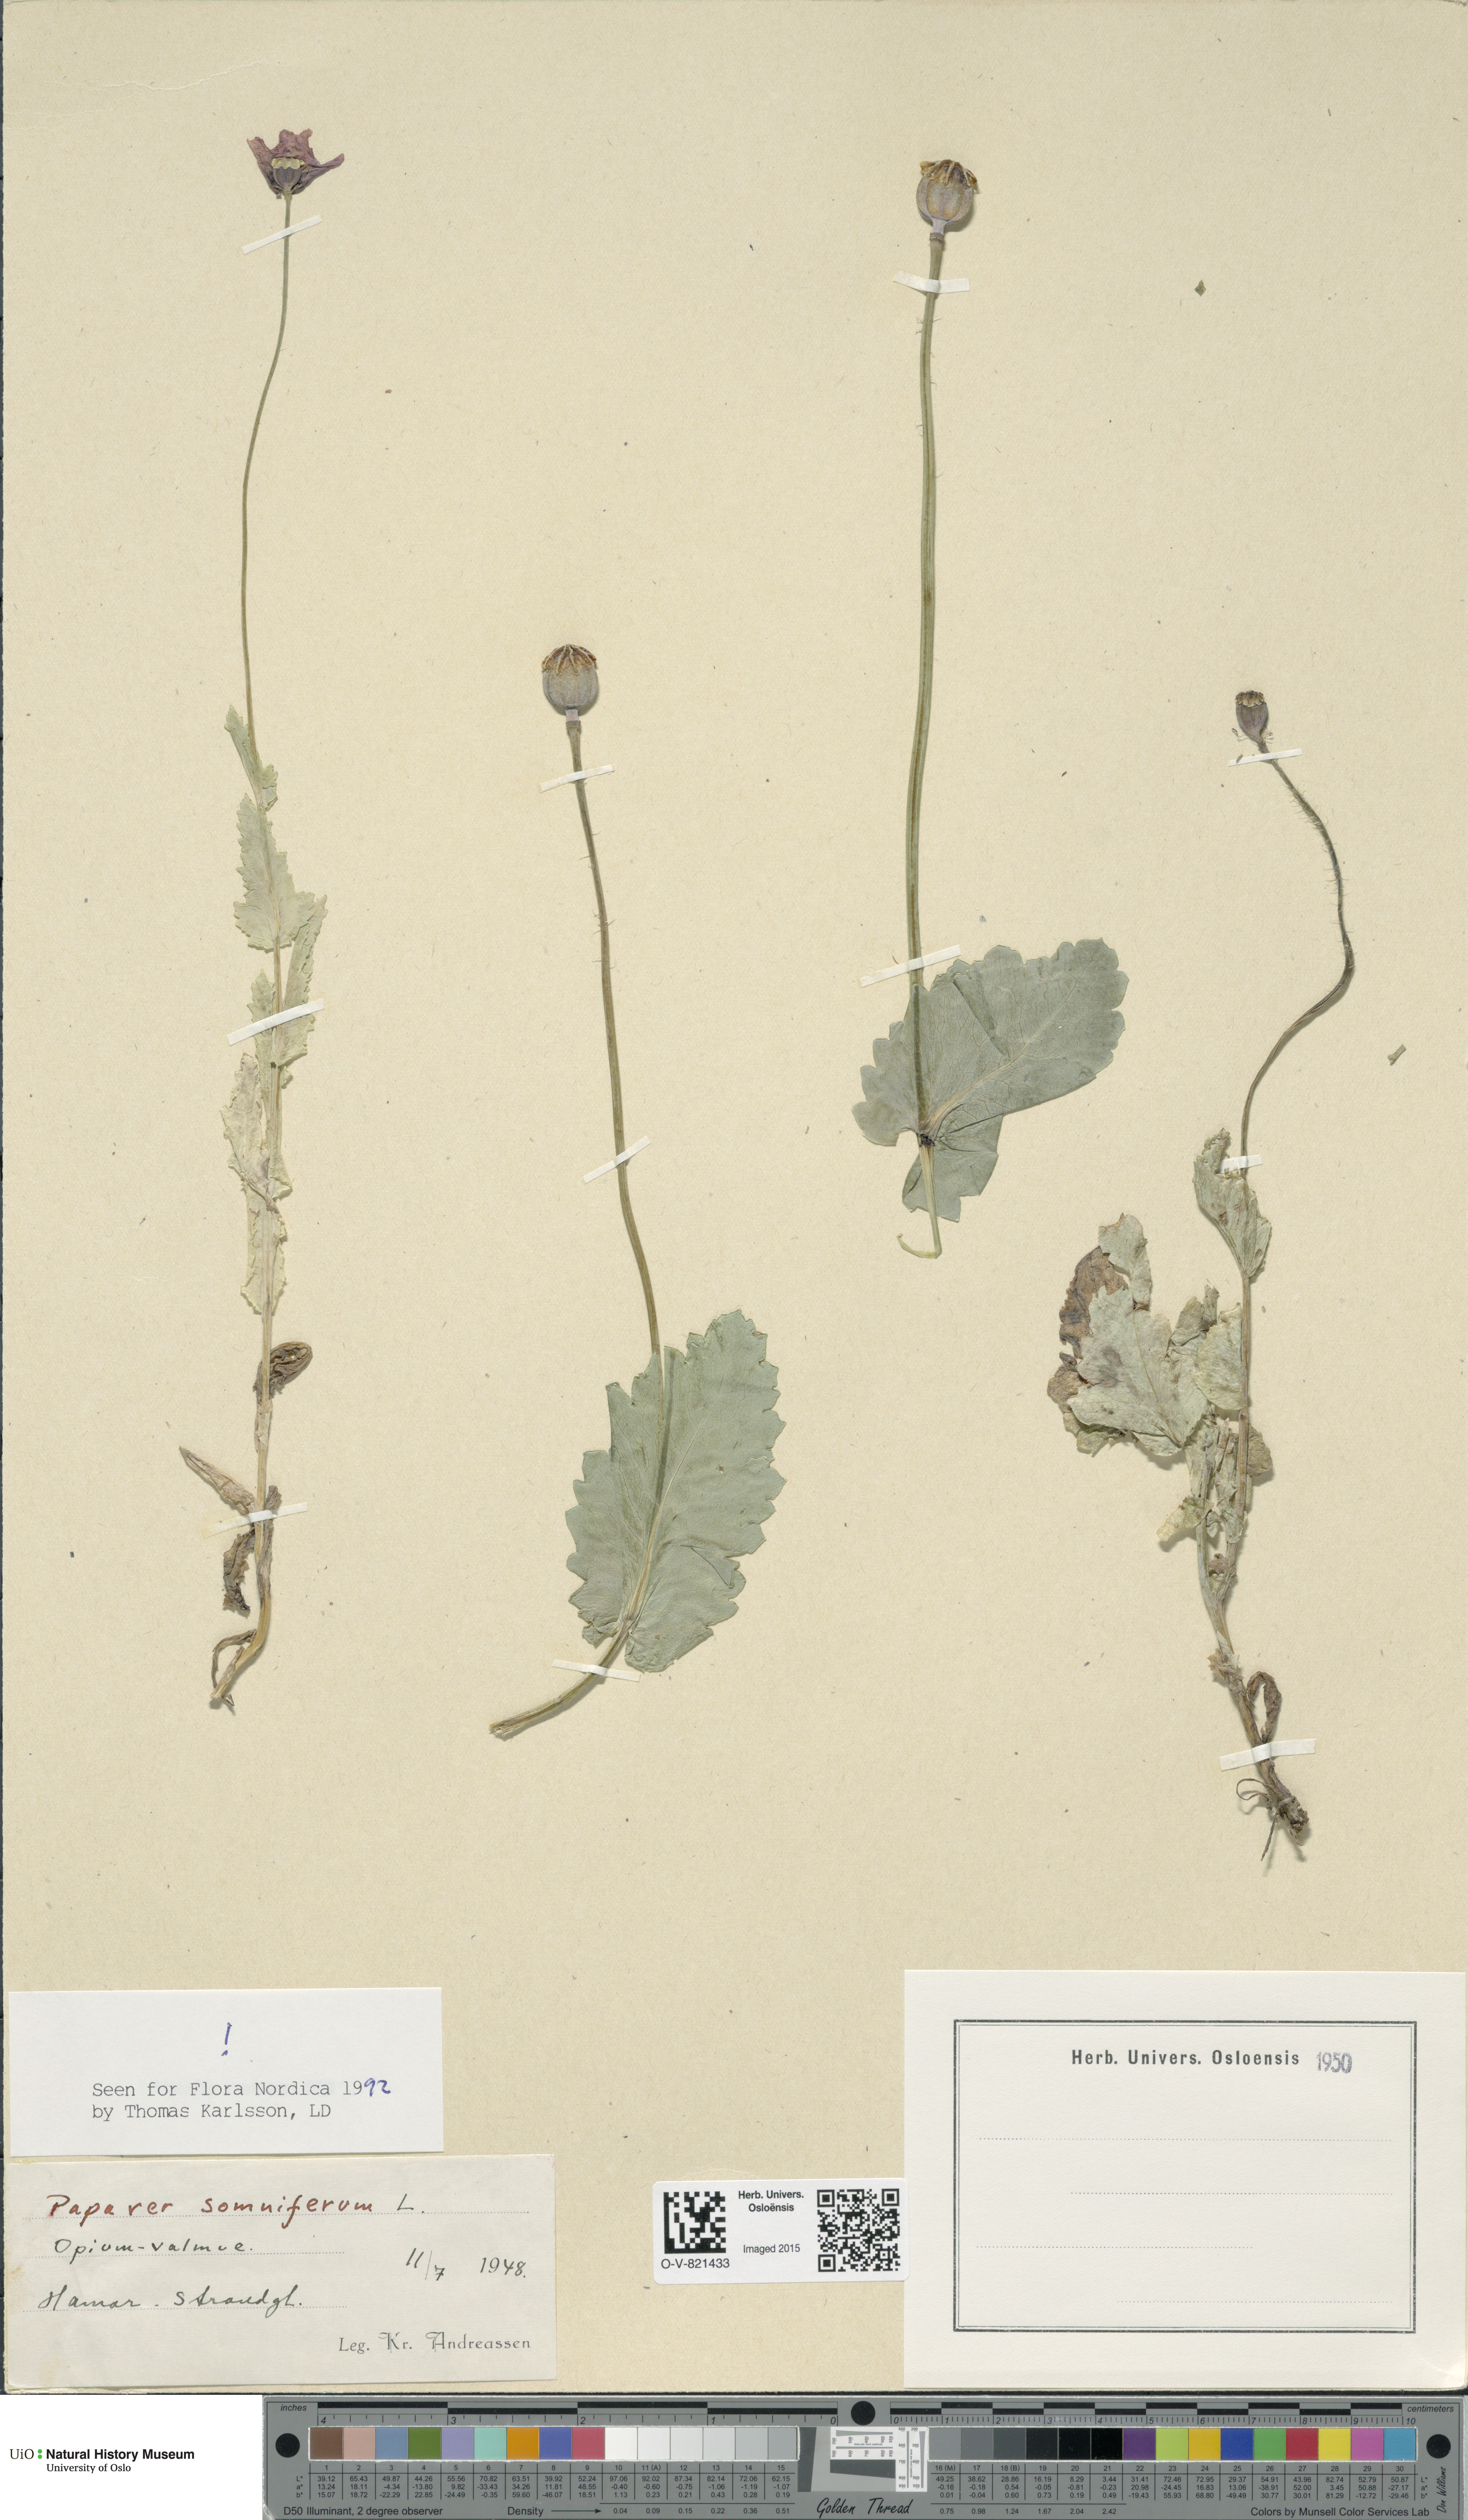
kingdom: Plantae
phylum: Tracheophyta
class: Magnoliopsida
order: Ranunculales
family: Papaveraceae
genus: Papaver
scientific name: Papaver somniferum
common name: Opium poppy
